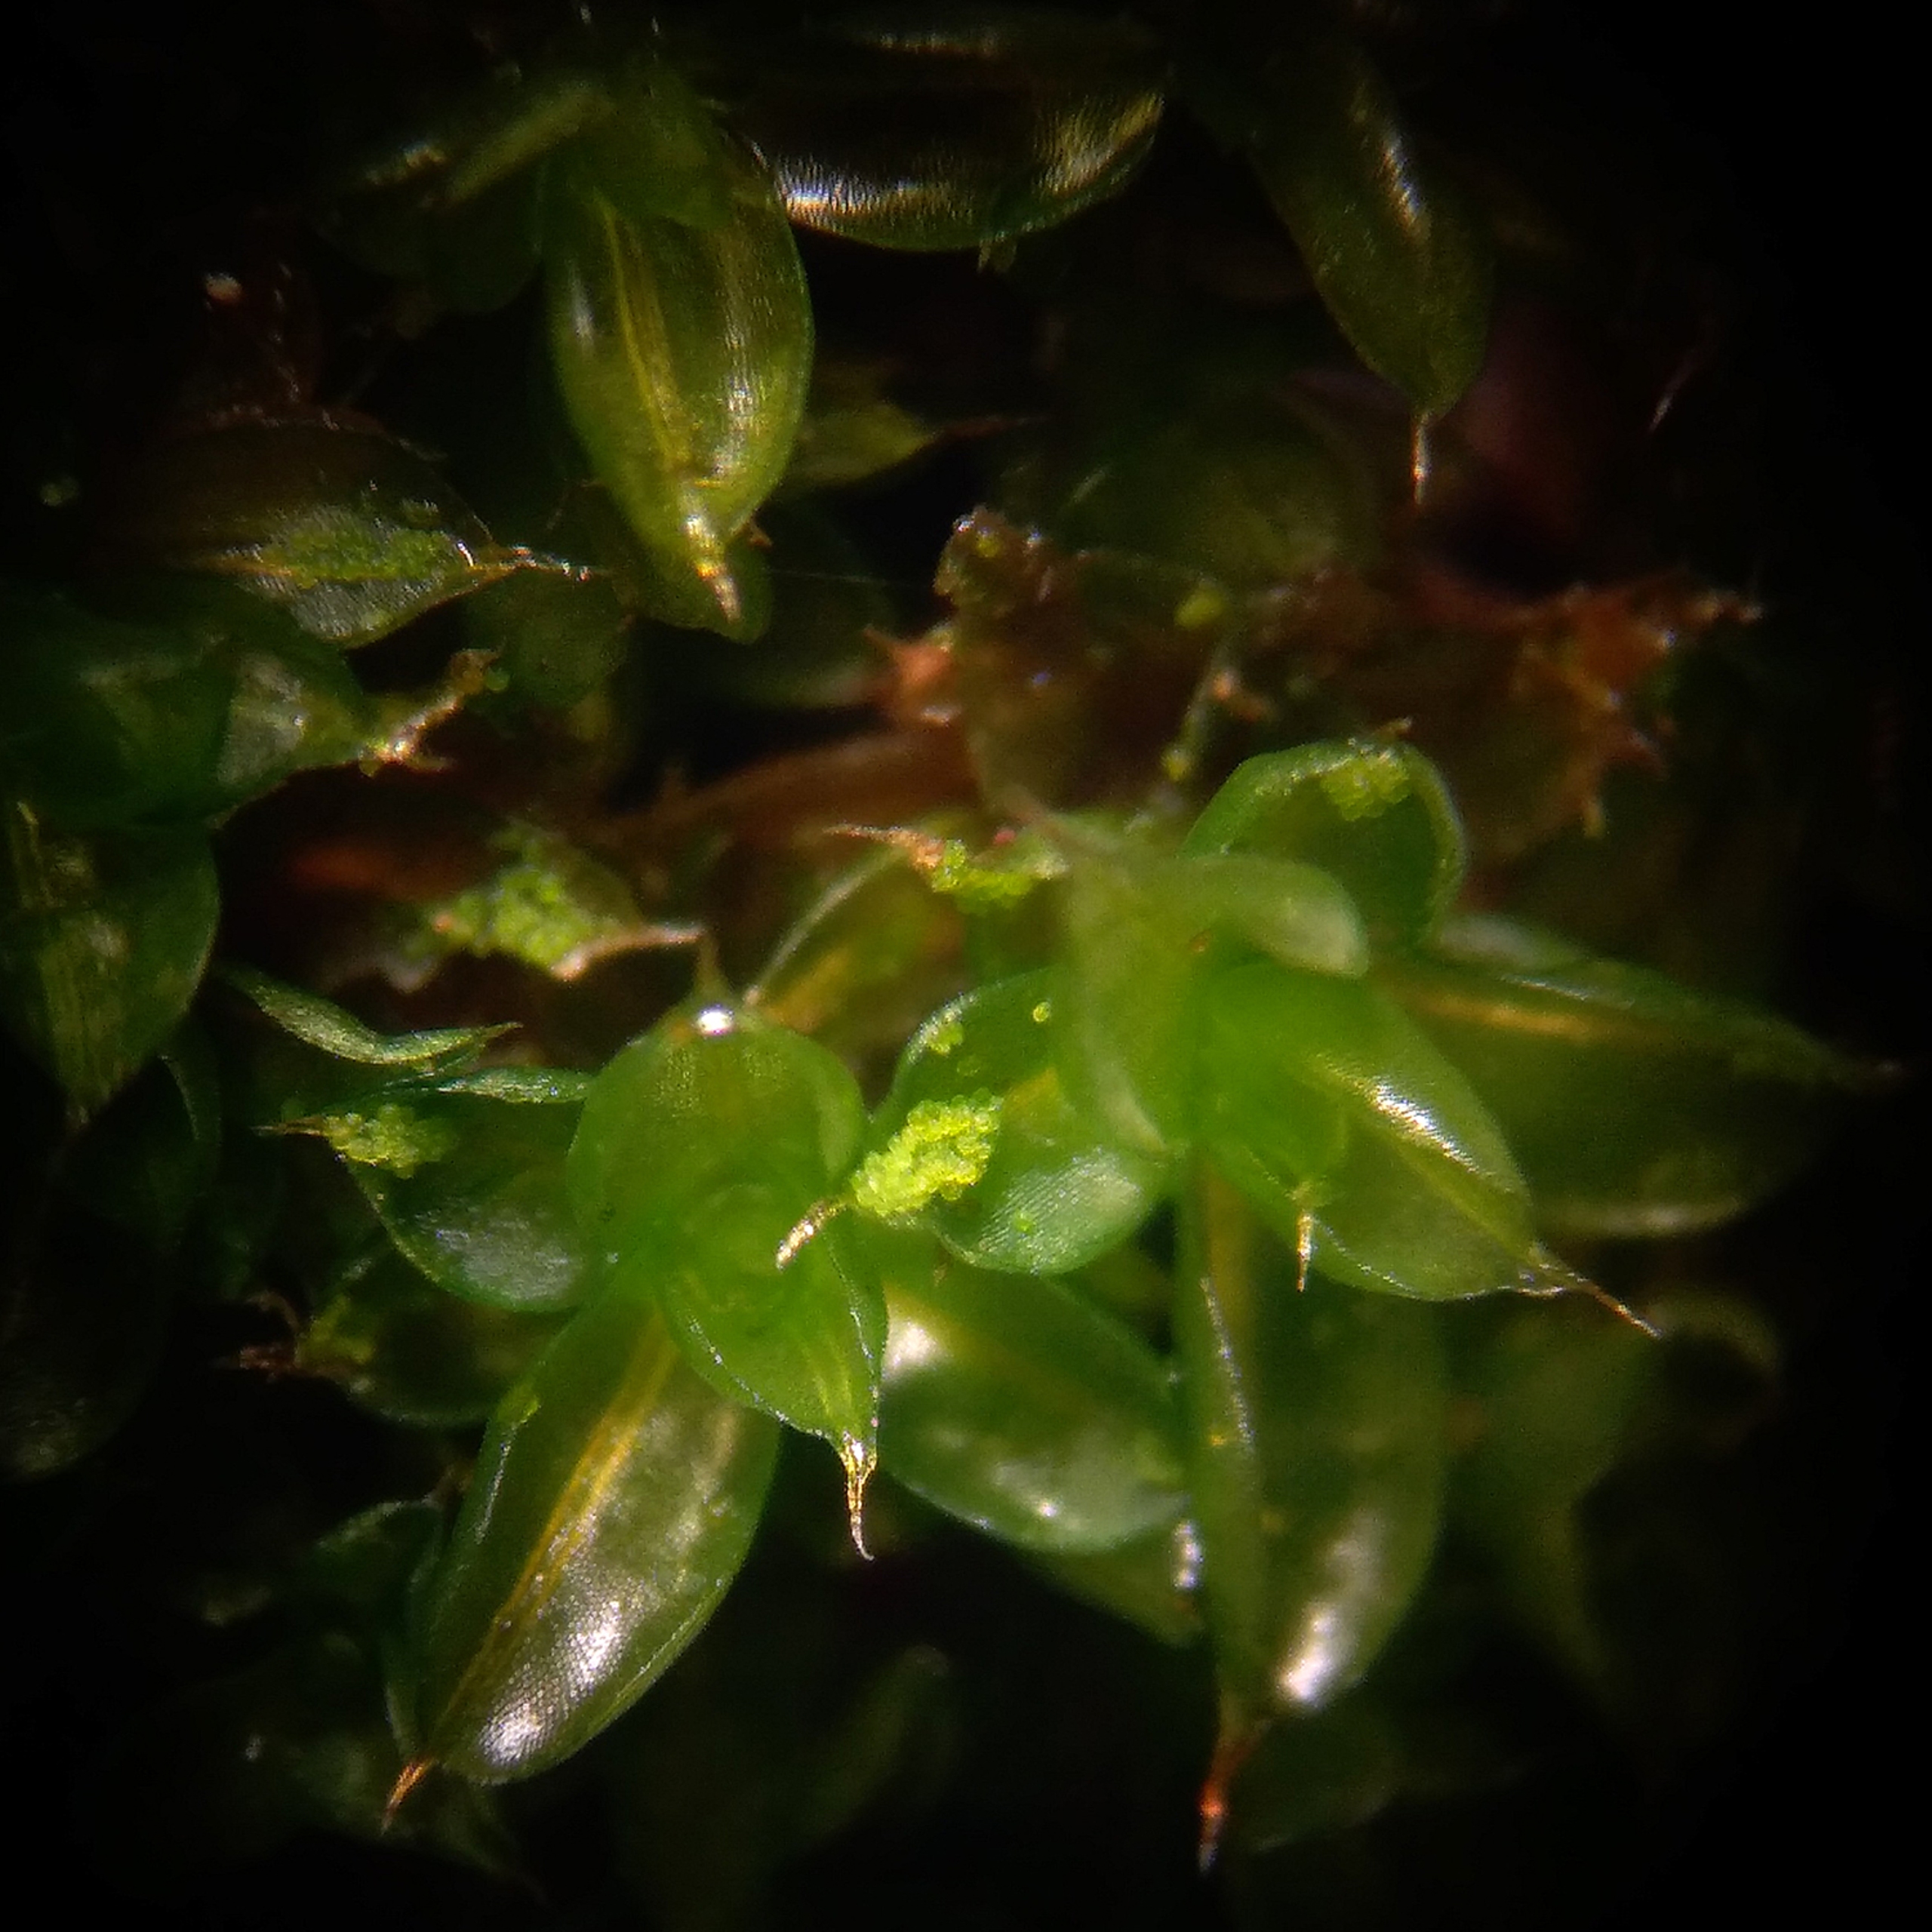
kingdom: Plantae
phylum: Bryophyta
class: Bryopsida
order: Pottiales
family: Pottiaceae
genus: Syntrichia
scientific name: Syntrichia papillosa
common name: Bark-hårstjerne
